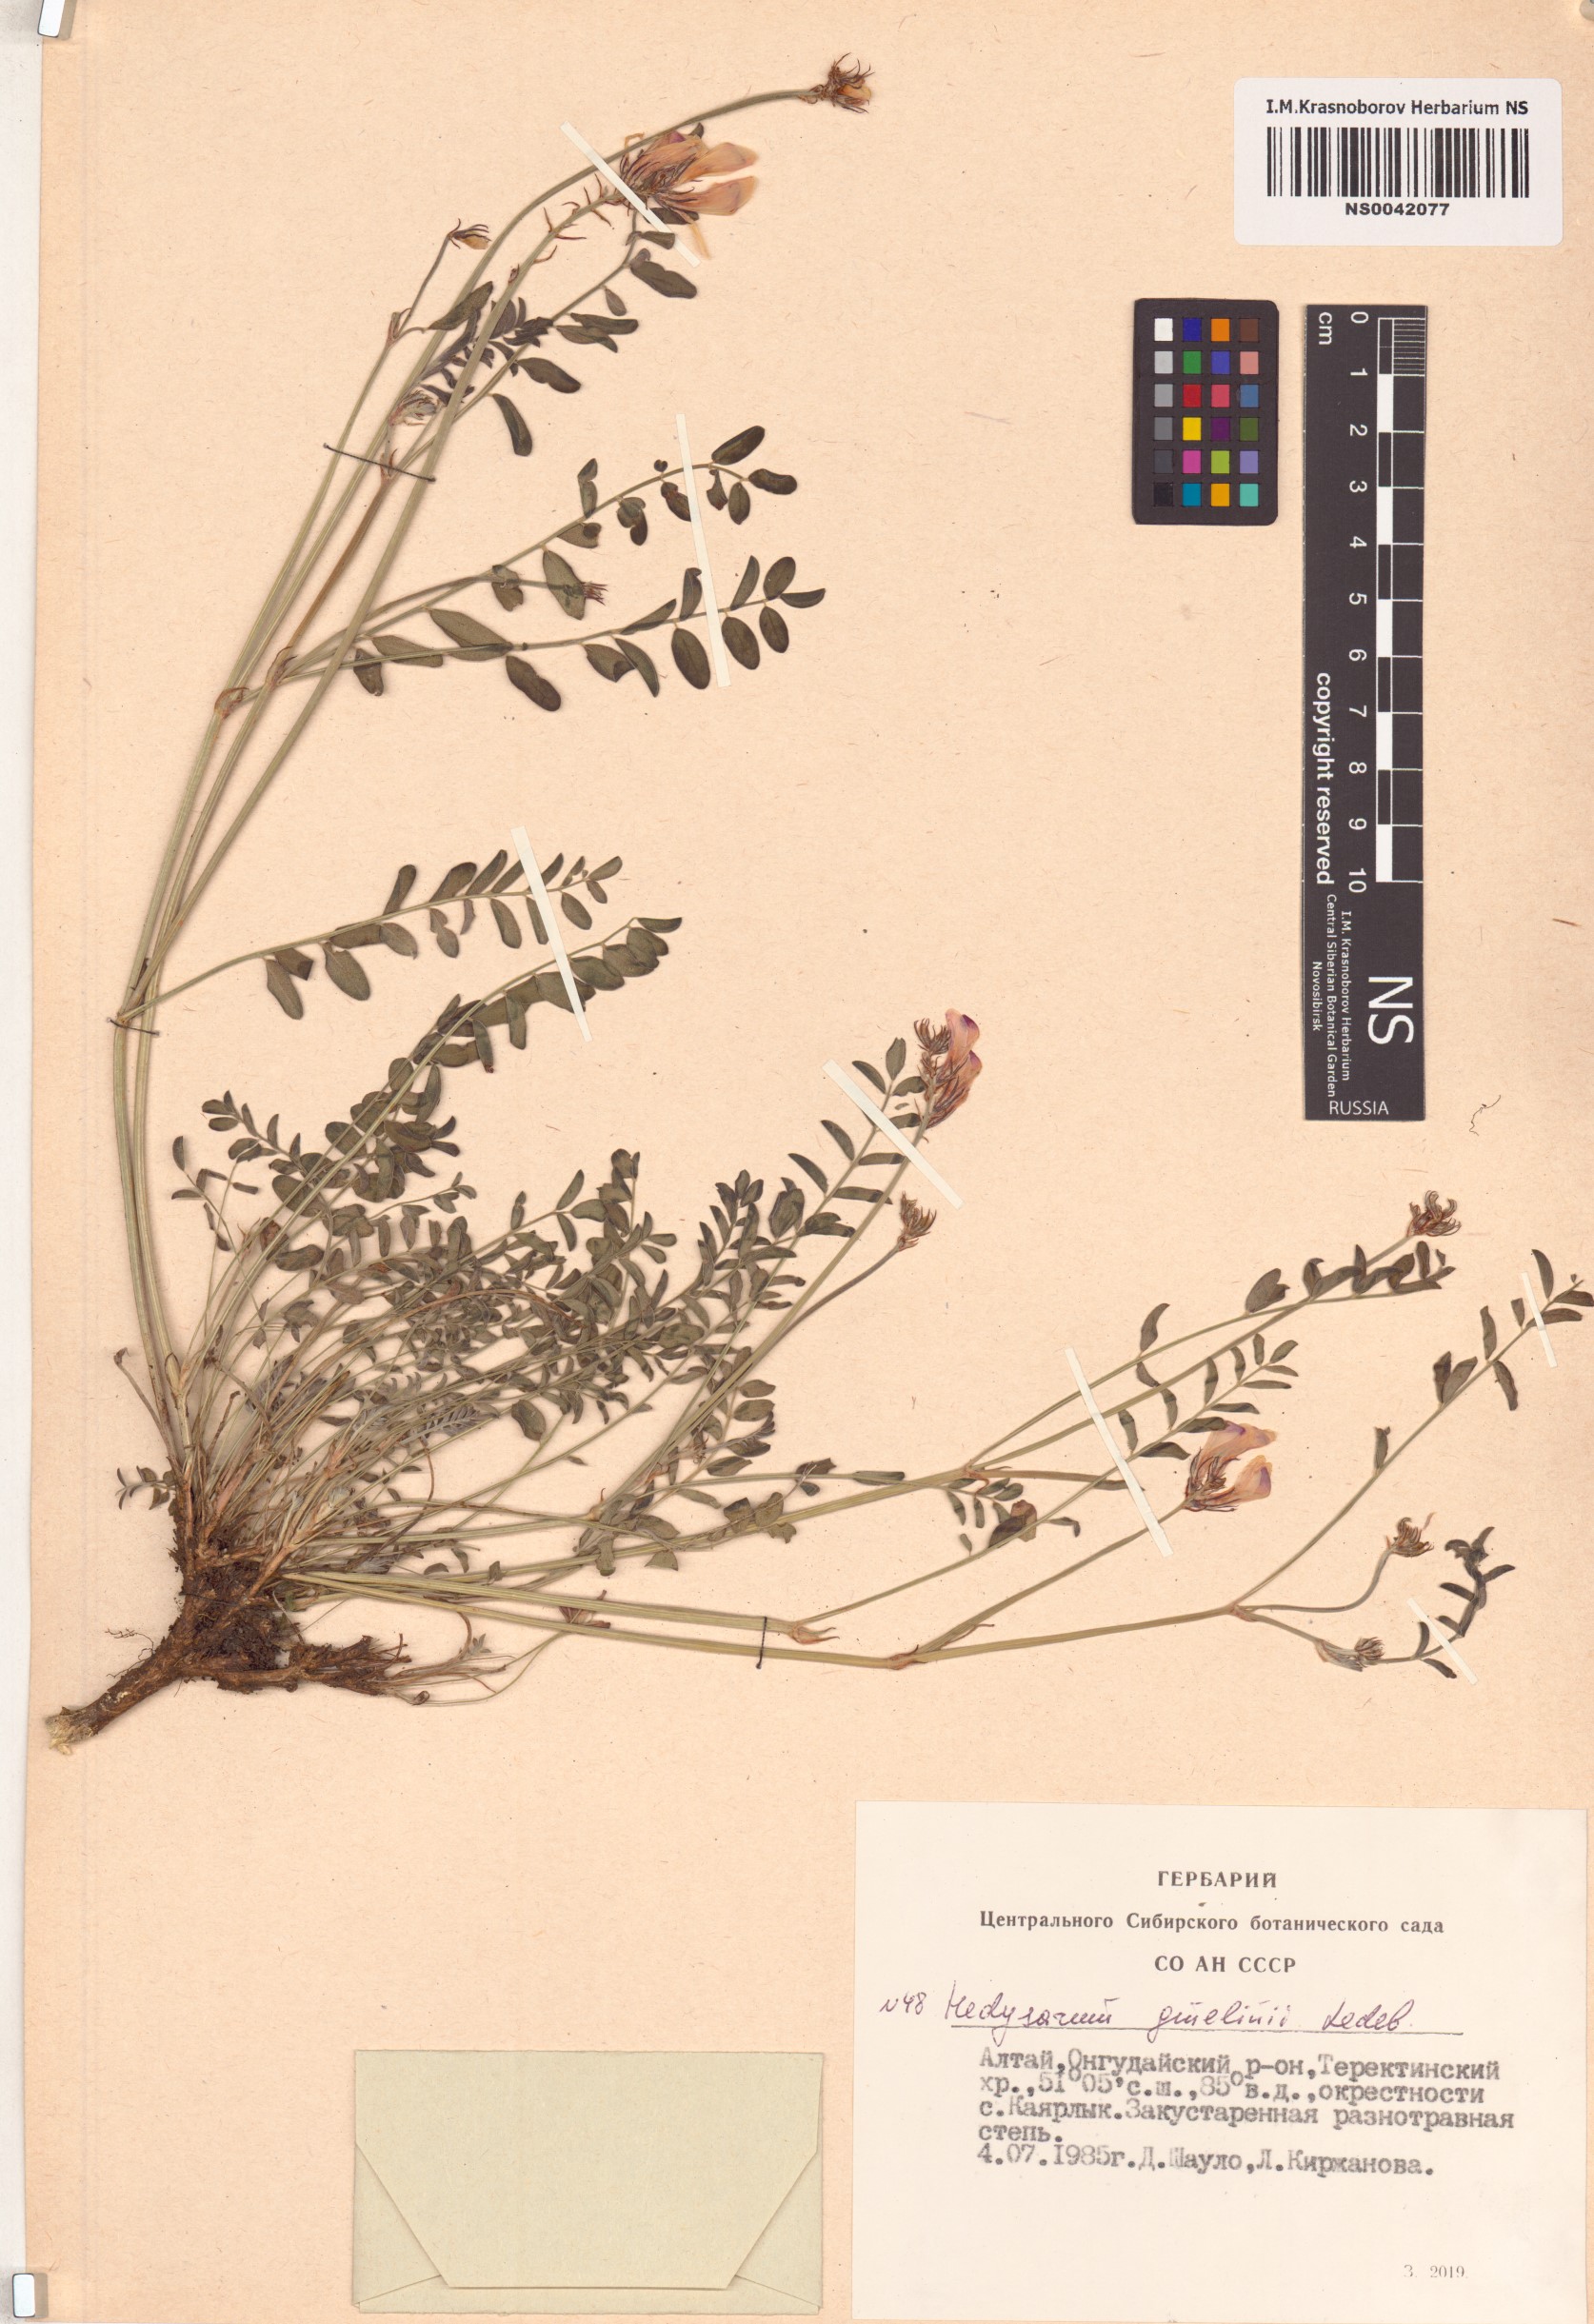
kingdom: Plantae
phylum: Tracheophyta
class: Magnoliopsida
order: Fabales
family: Fabaceae
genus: Hedysarum
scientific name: Hedysarum gmelinii
